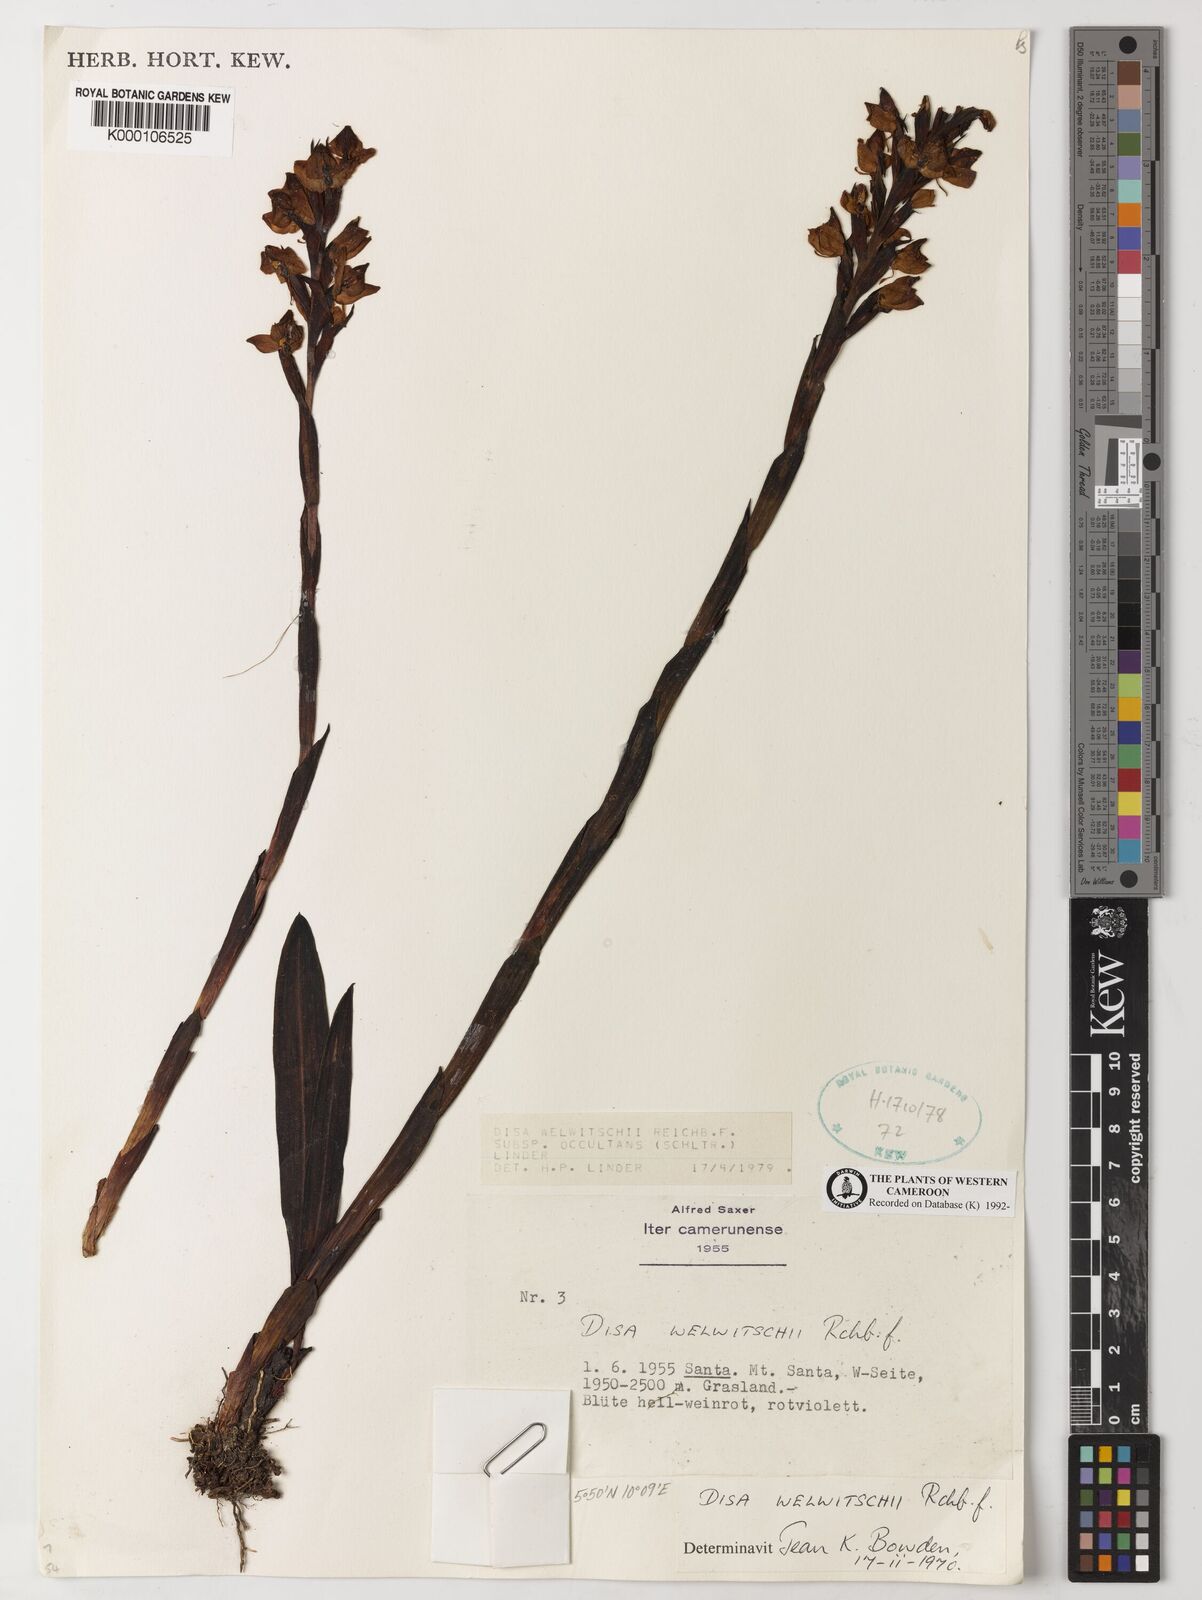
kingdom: Plantae
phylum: Tracheophyta
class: Liliopsida
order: Asparagales
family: Orchidaceae
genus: Disa
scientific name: Disa welwitschii
